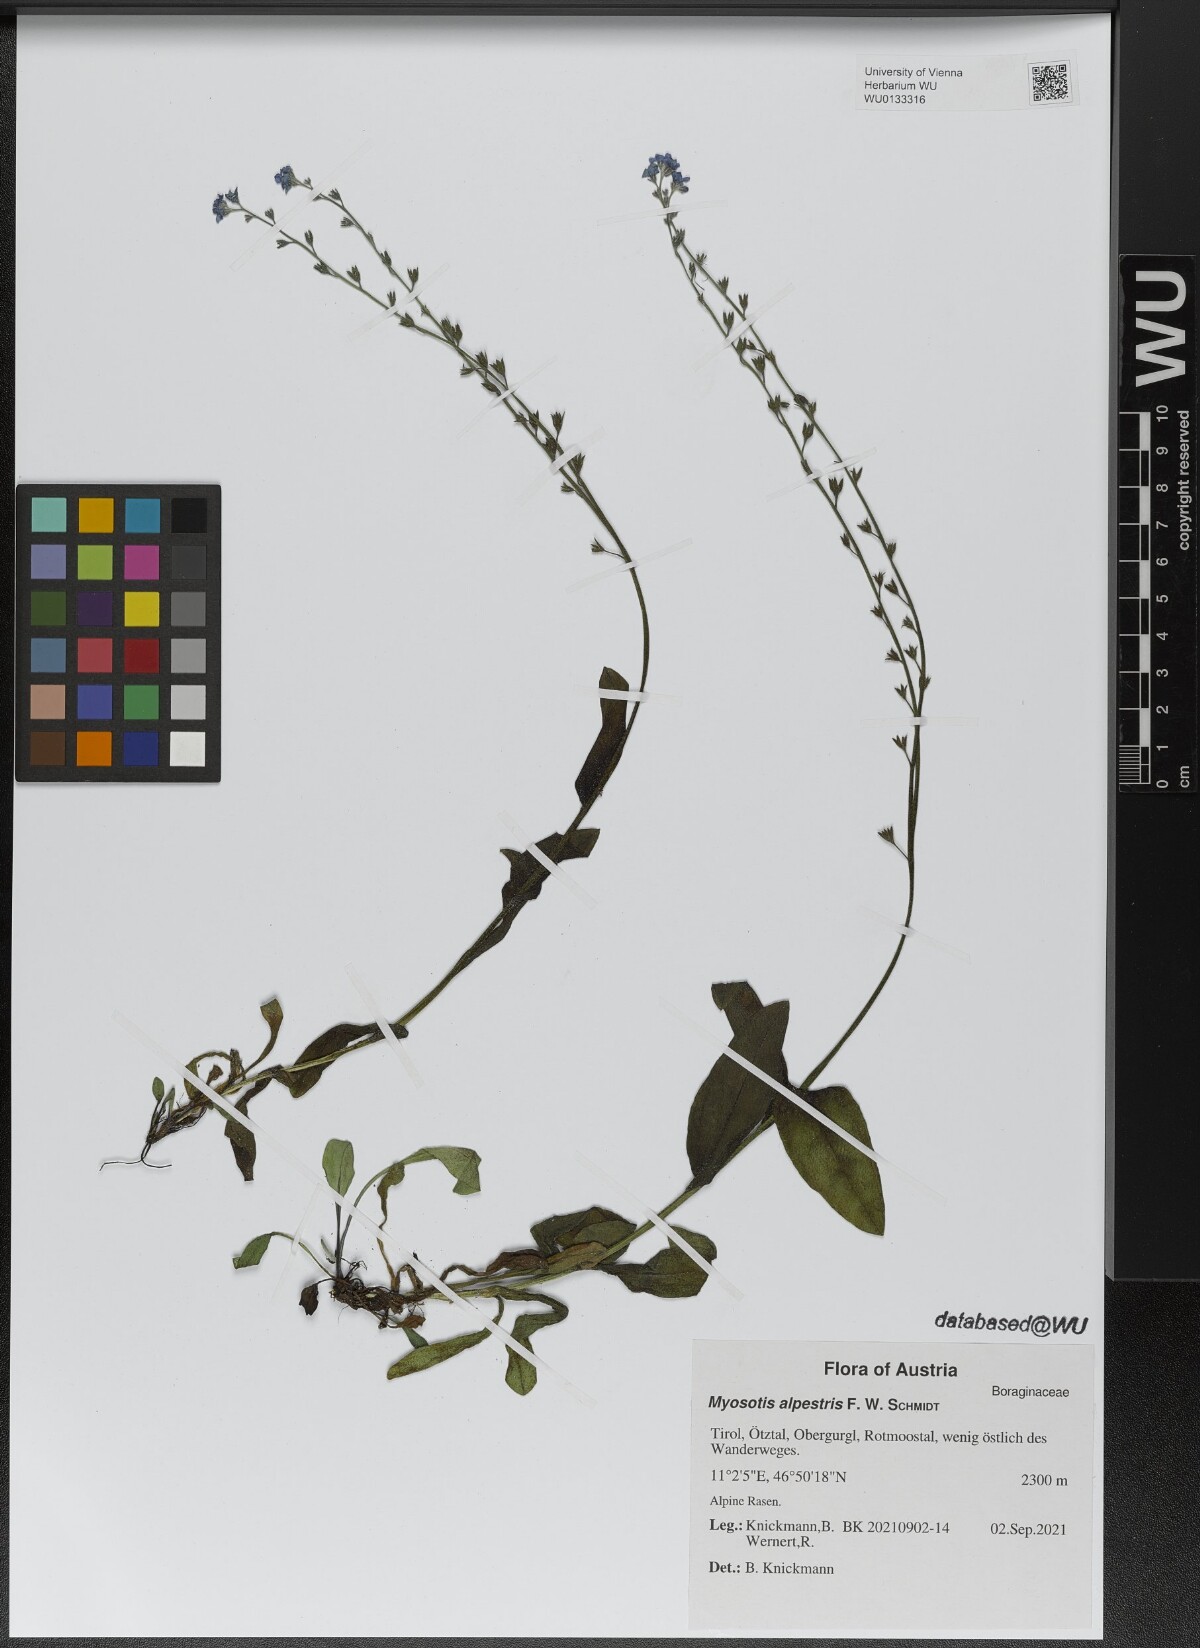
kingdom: Plantae
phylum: Tracheophyta
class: Magnoliopsida
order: Boraginales
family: Boraginaceae
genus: Myosotis
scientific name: Myosotis alpestris
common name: Alpine forget-me-not
